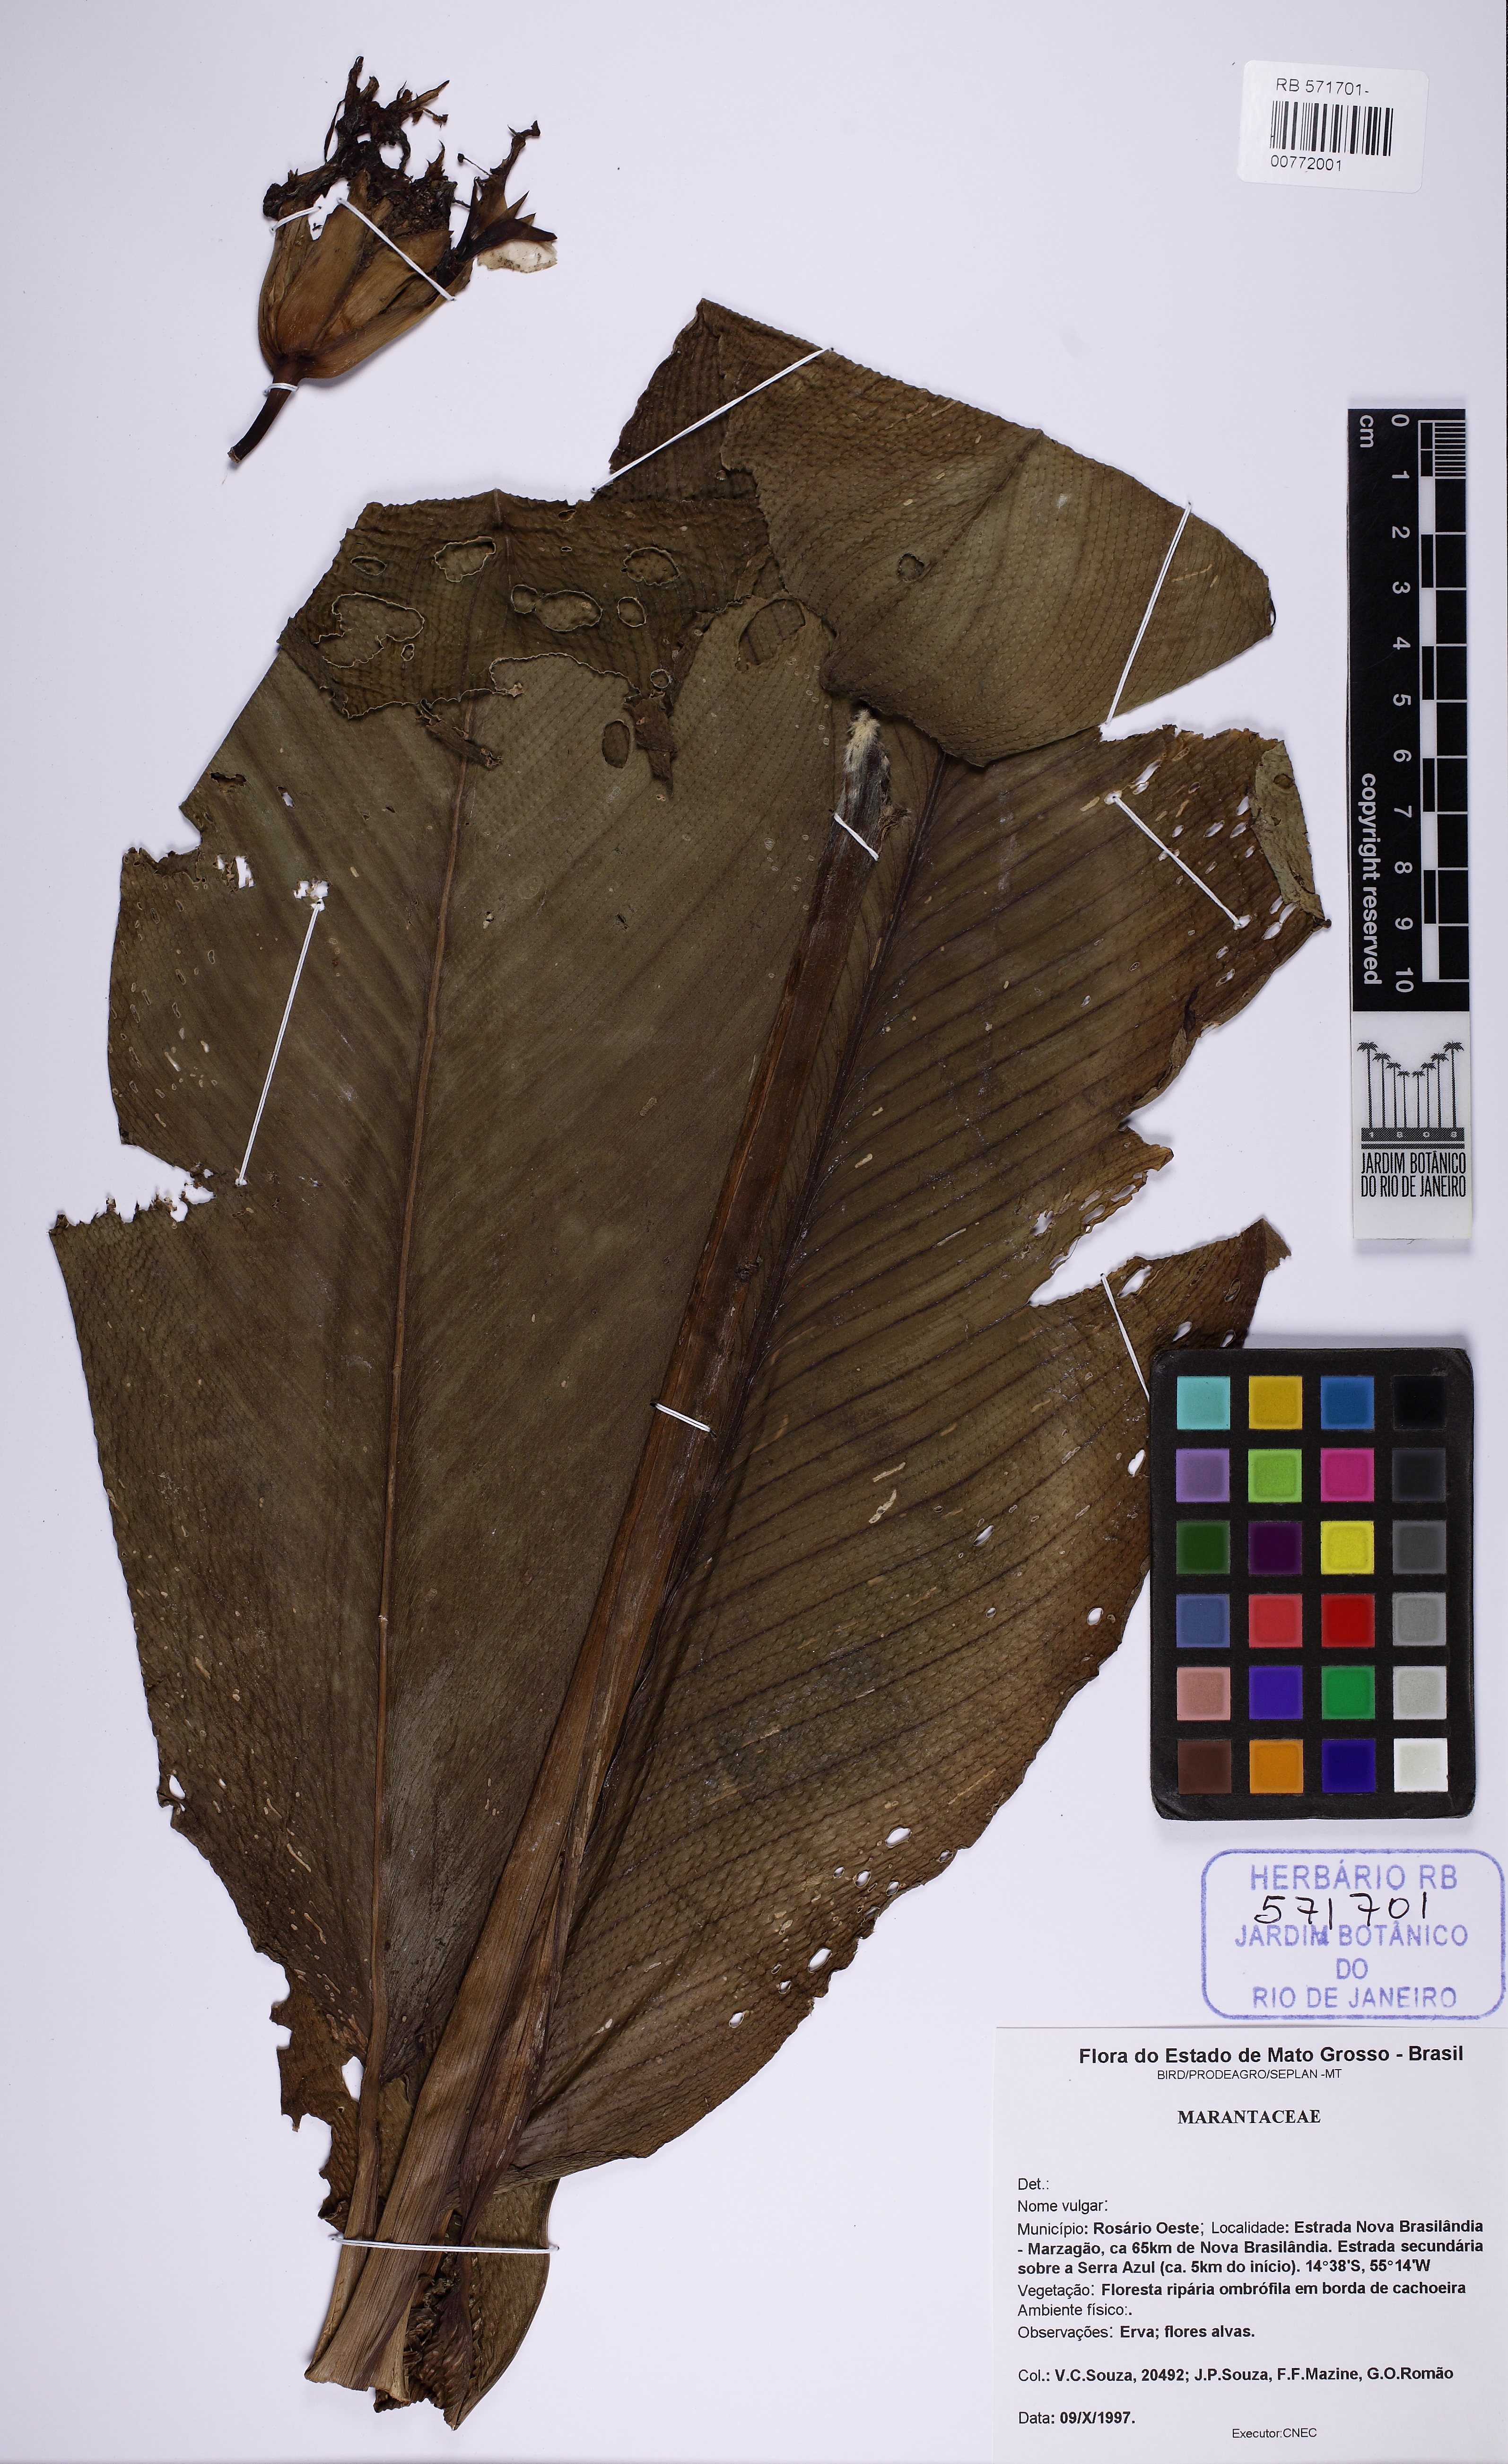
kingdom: Plantae
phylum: Tracheophyta
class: Liliopsida
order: Zingiberales
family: Marantaceae
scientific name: Marantaceae
